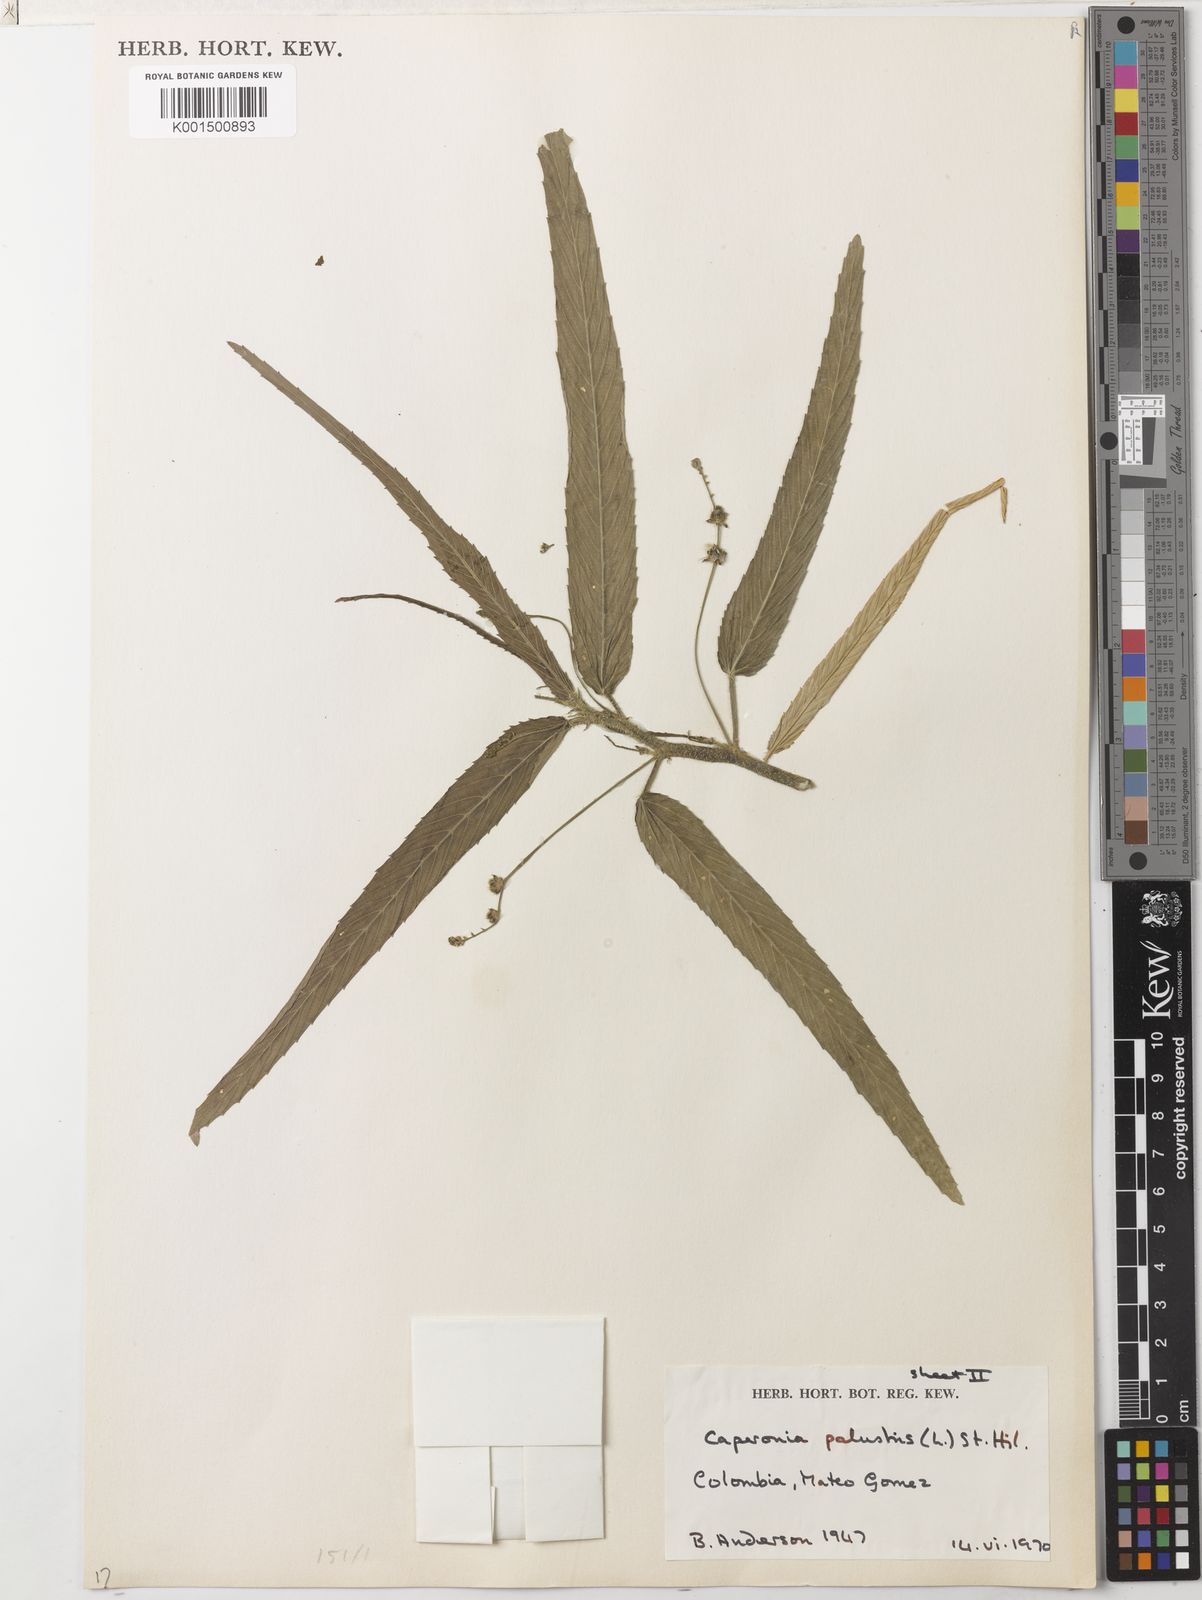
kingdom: Plantae
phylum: Tracheophyta
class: Magnoliopsida
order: Malpighiales
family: Euphorbiaceae
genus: Caperonia
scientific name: Caperonia palustris
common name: Sacatrapo
